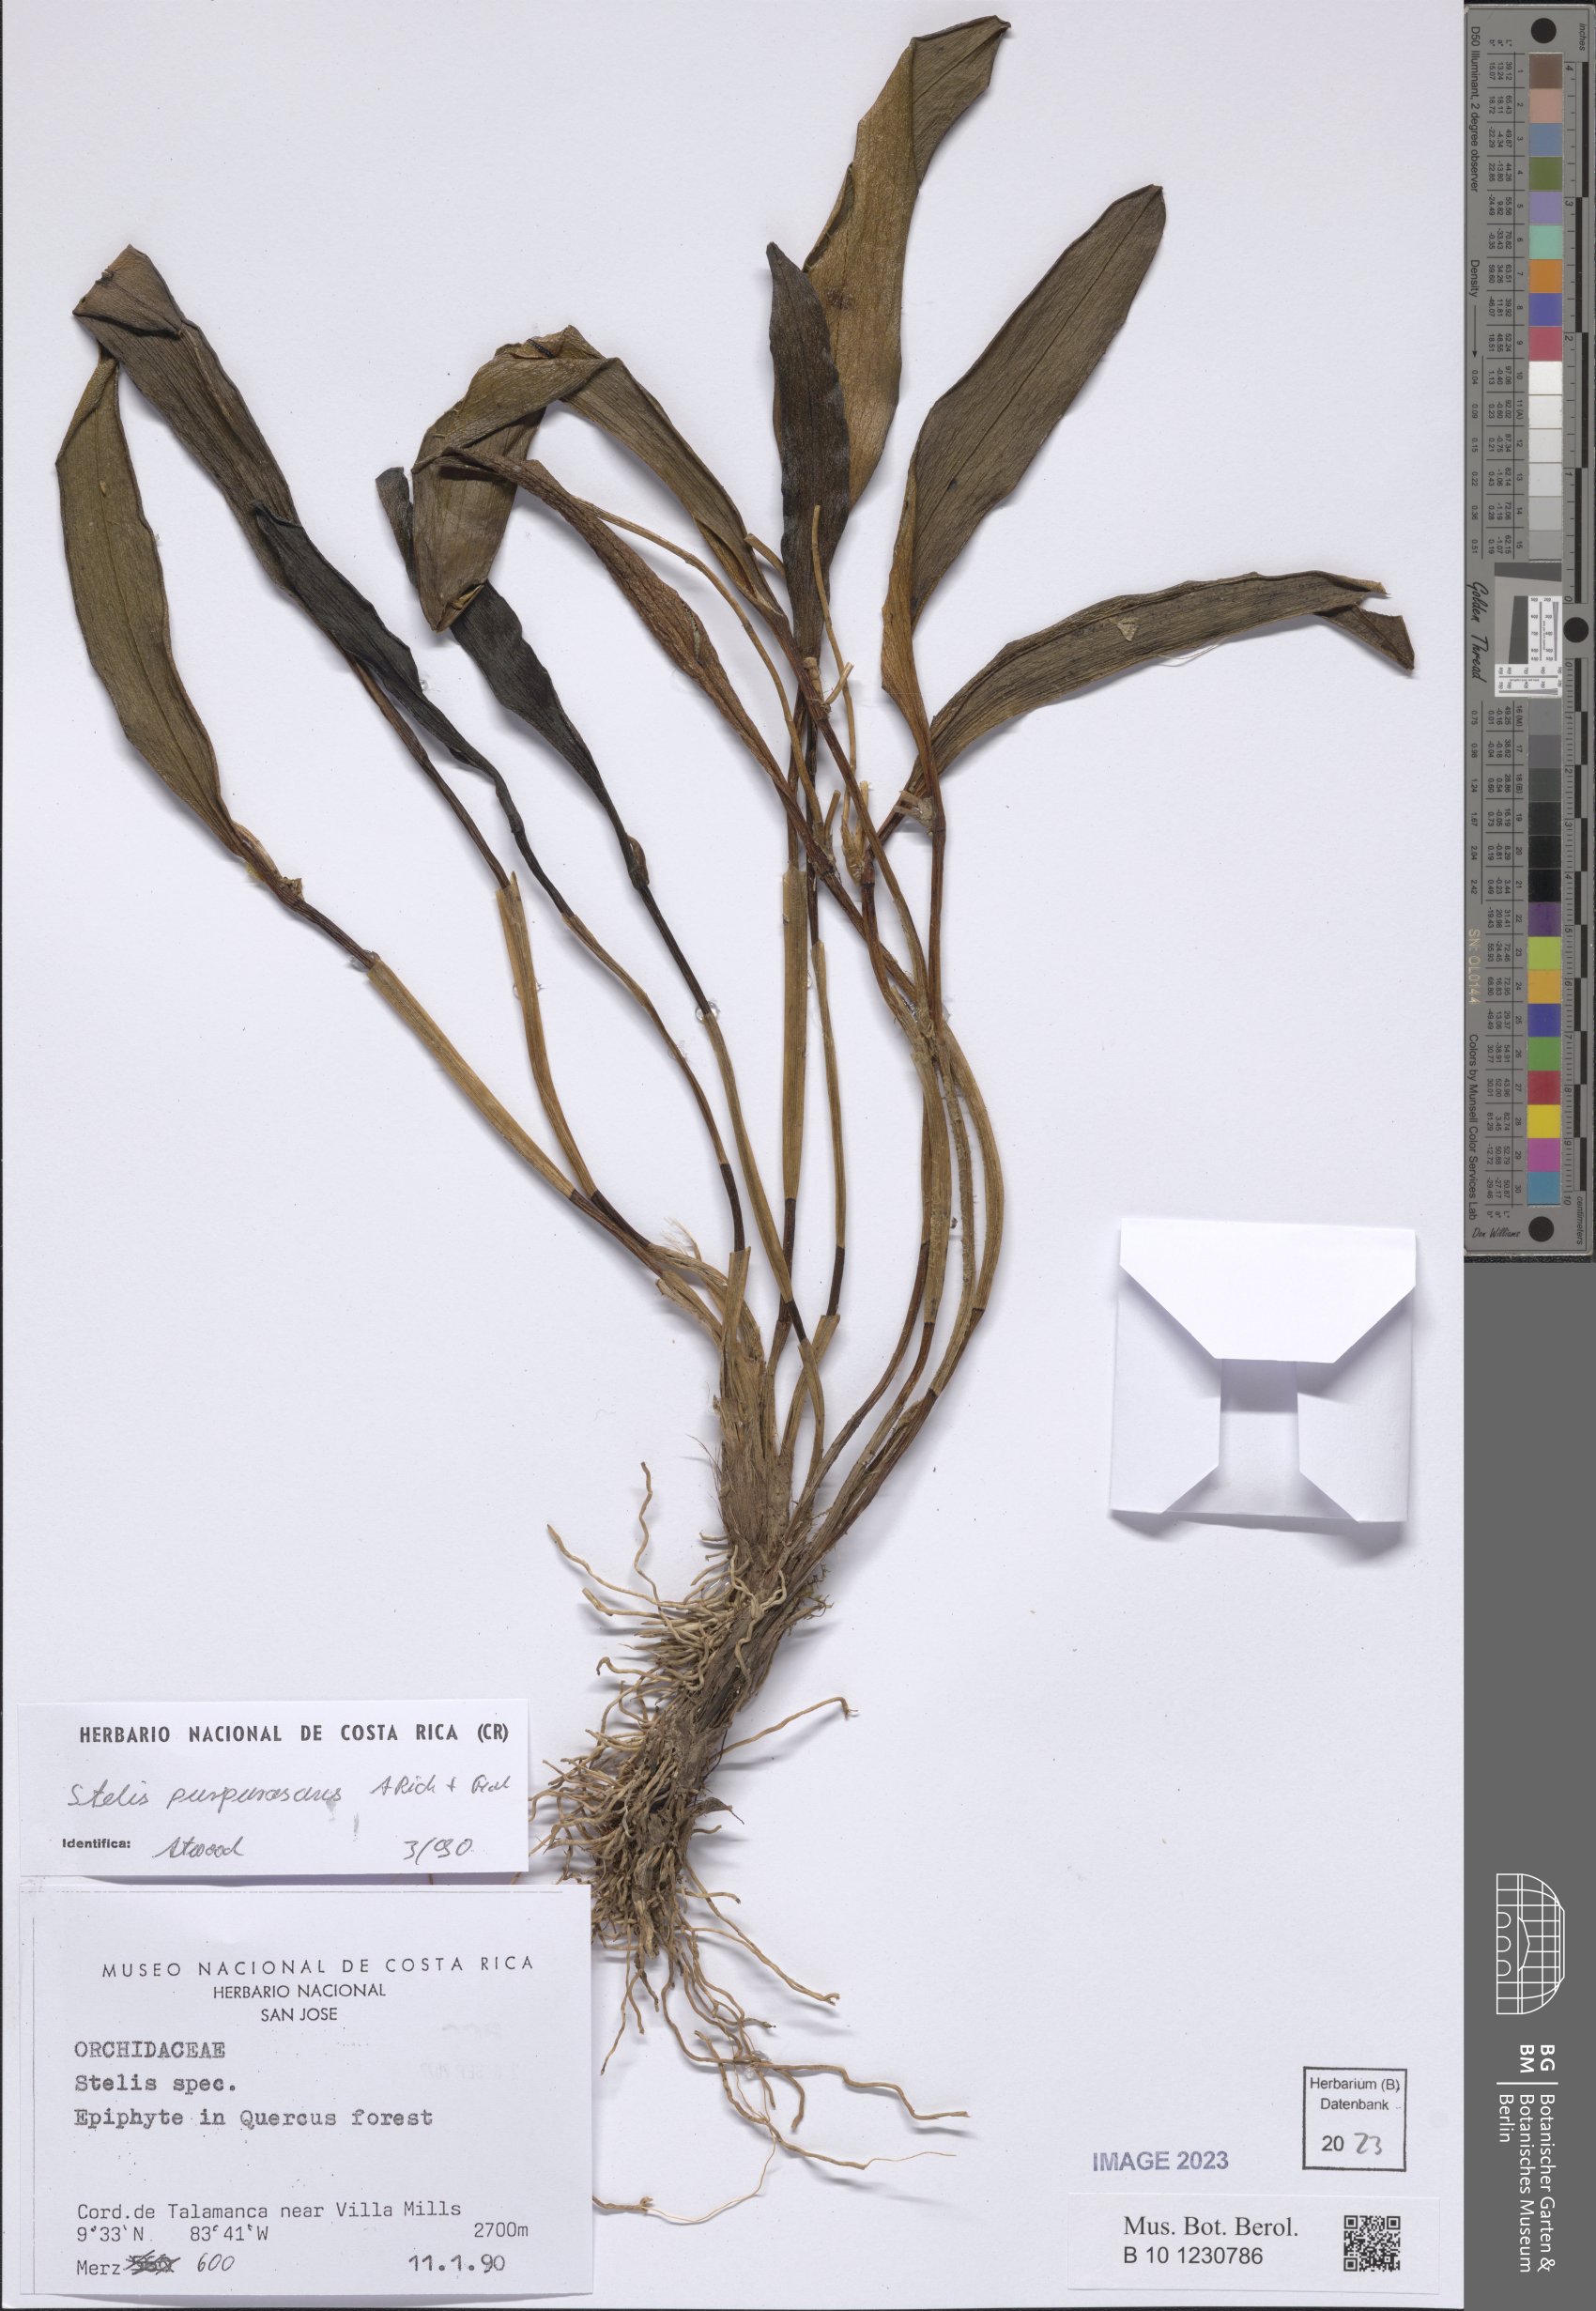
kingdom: Plantae
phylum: Tracheophyta
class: Liliopsida
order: Asparagales
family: Orchidaceae
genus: Stelis
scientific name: Stelis purpurascens
